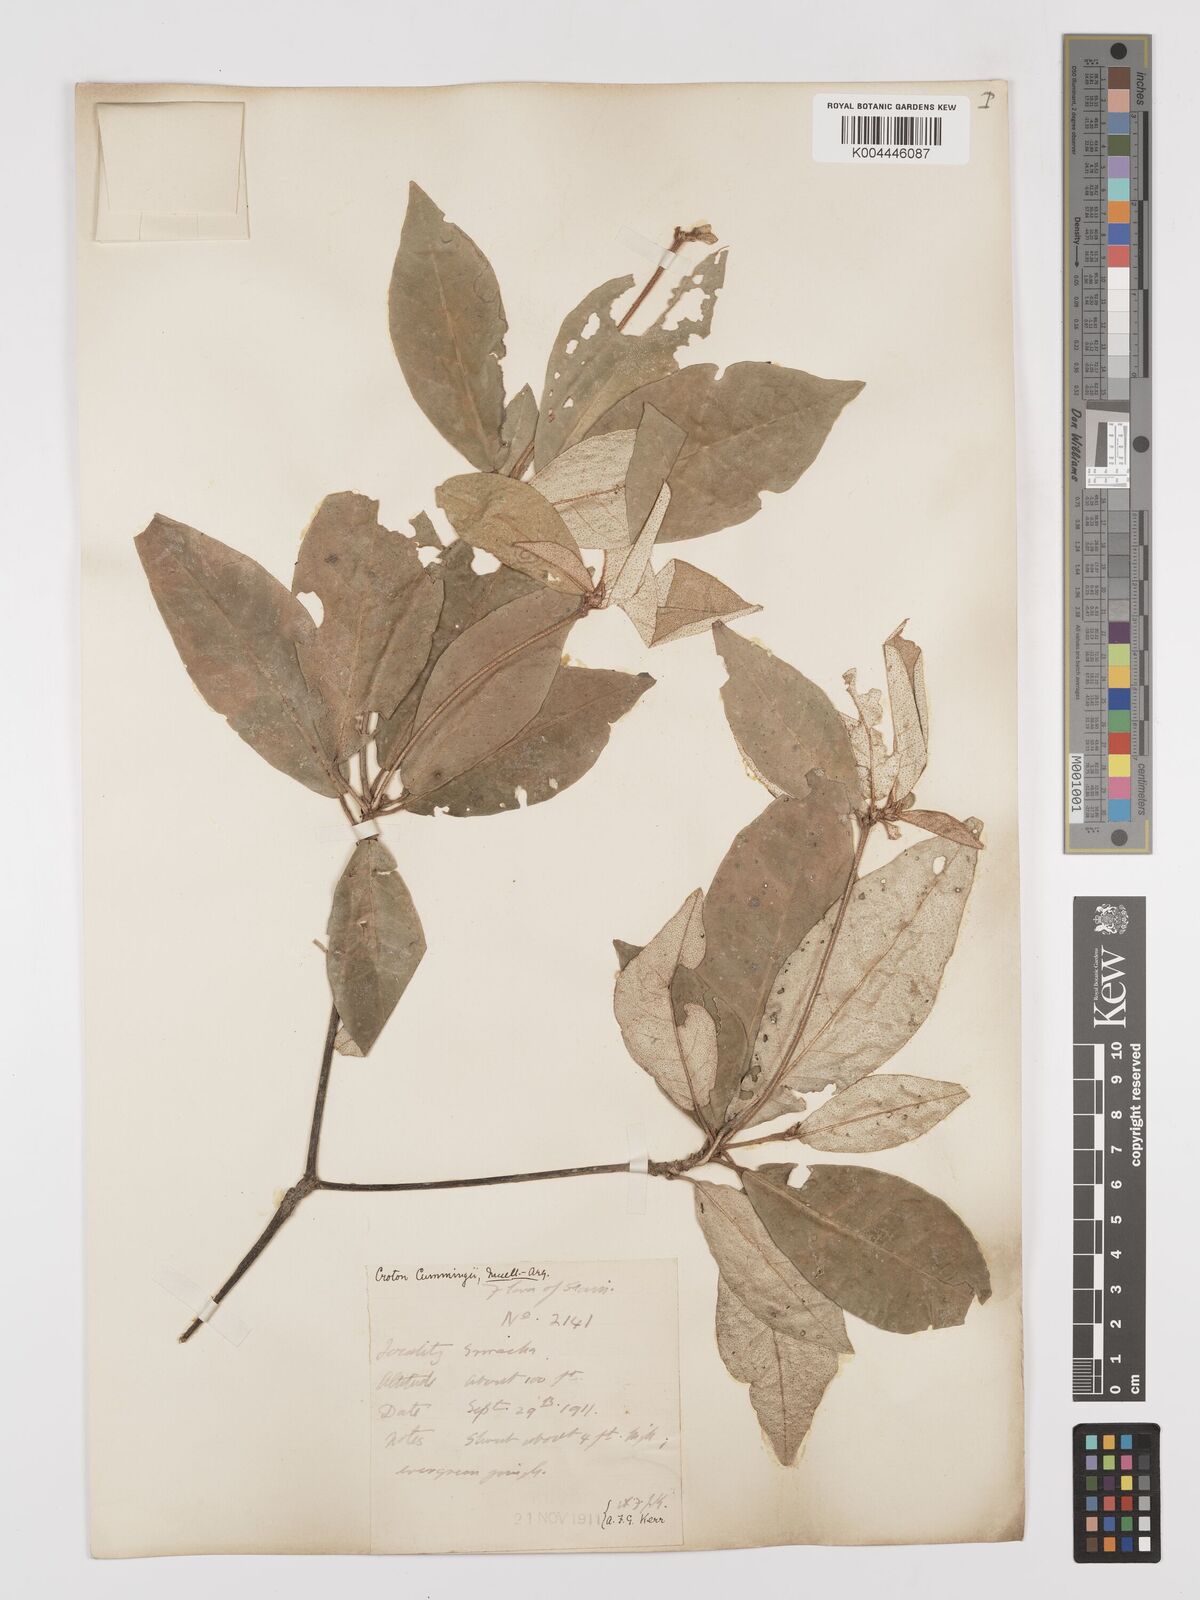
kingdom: Plantae
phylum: Tracheophyta
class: Magnoliopsida
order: Malpighiales
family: Euphorbiaceae
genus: Croton
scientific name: Croton cascarilloides
